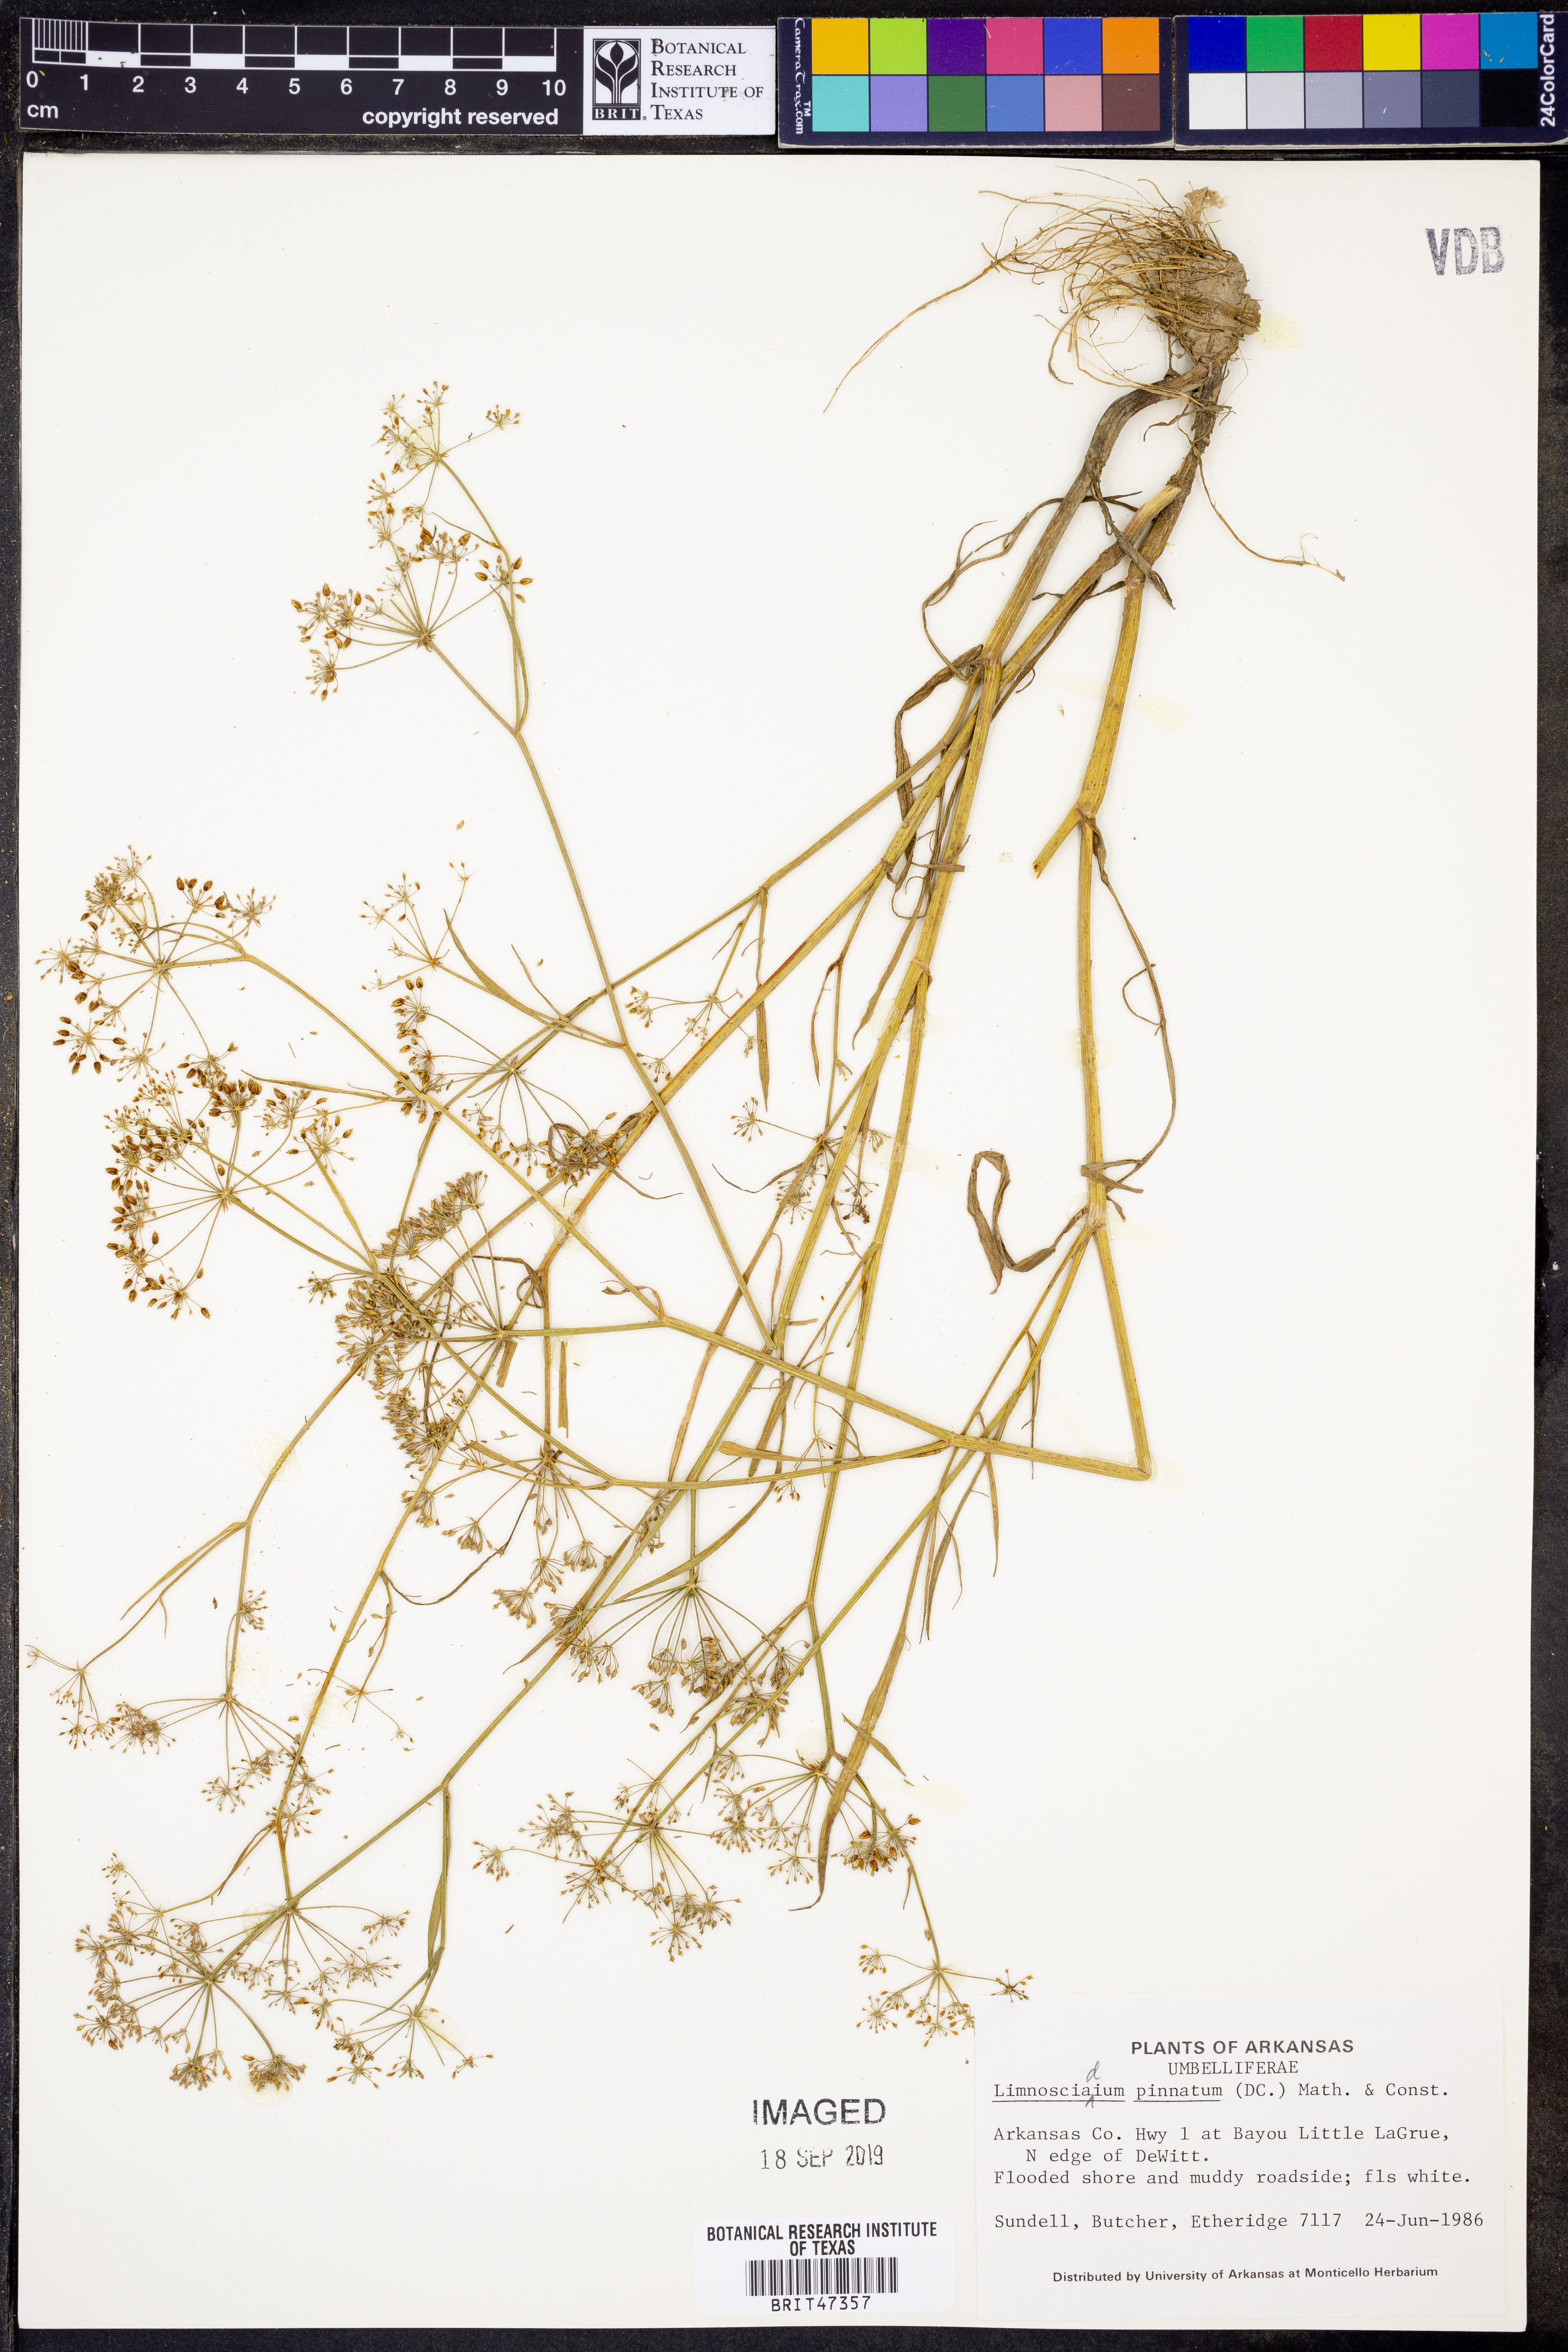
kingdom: Plantae
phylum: Tracheophyta
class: Magnoliopsida
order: Apiales
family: Apiaceae
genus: Limnosciadium
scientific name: Limnosciadium pinnatum
